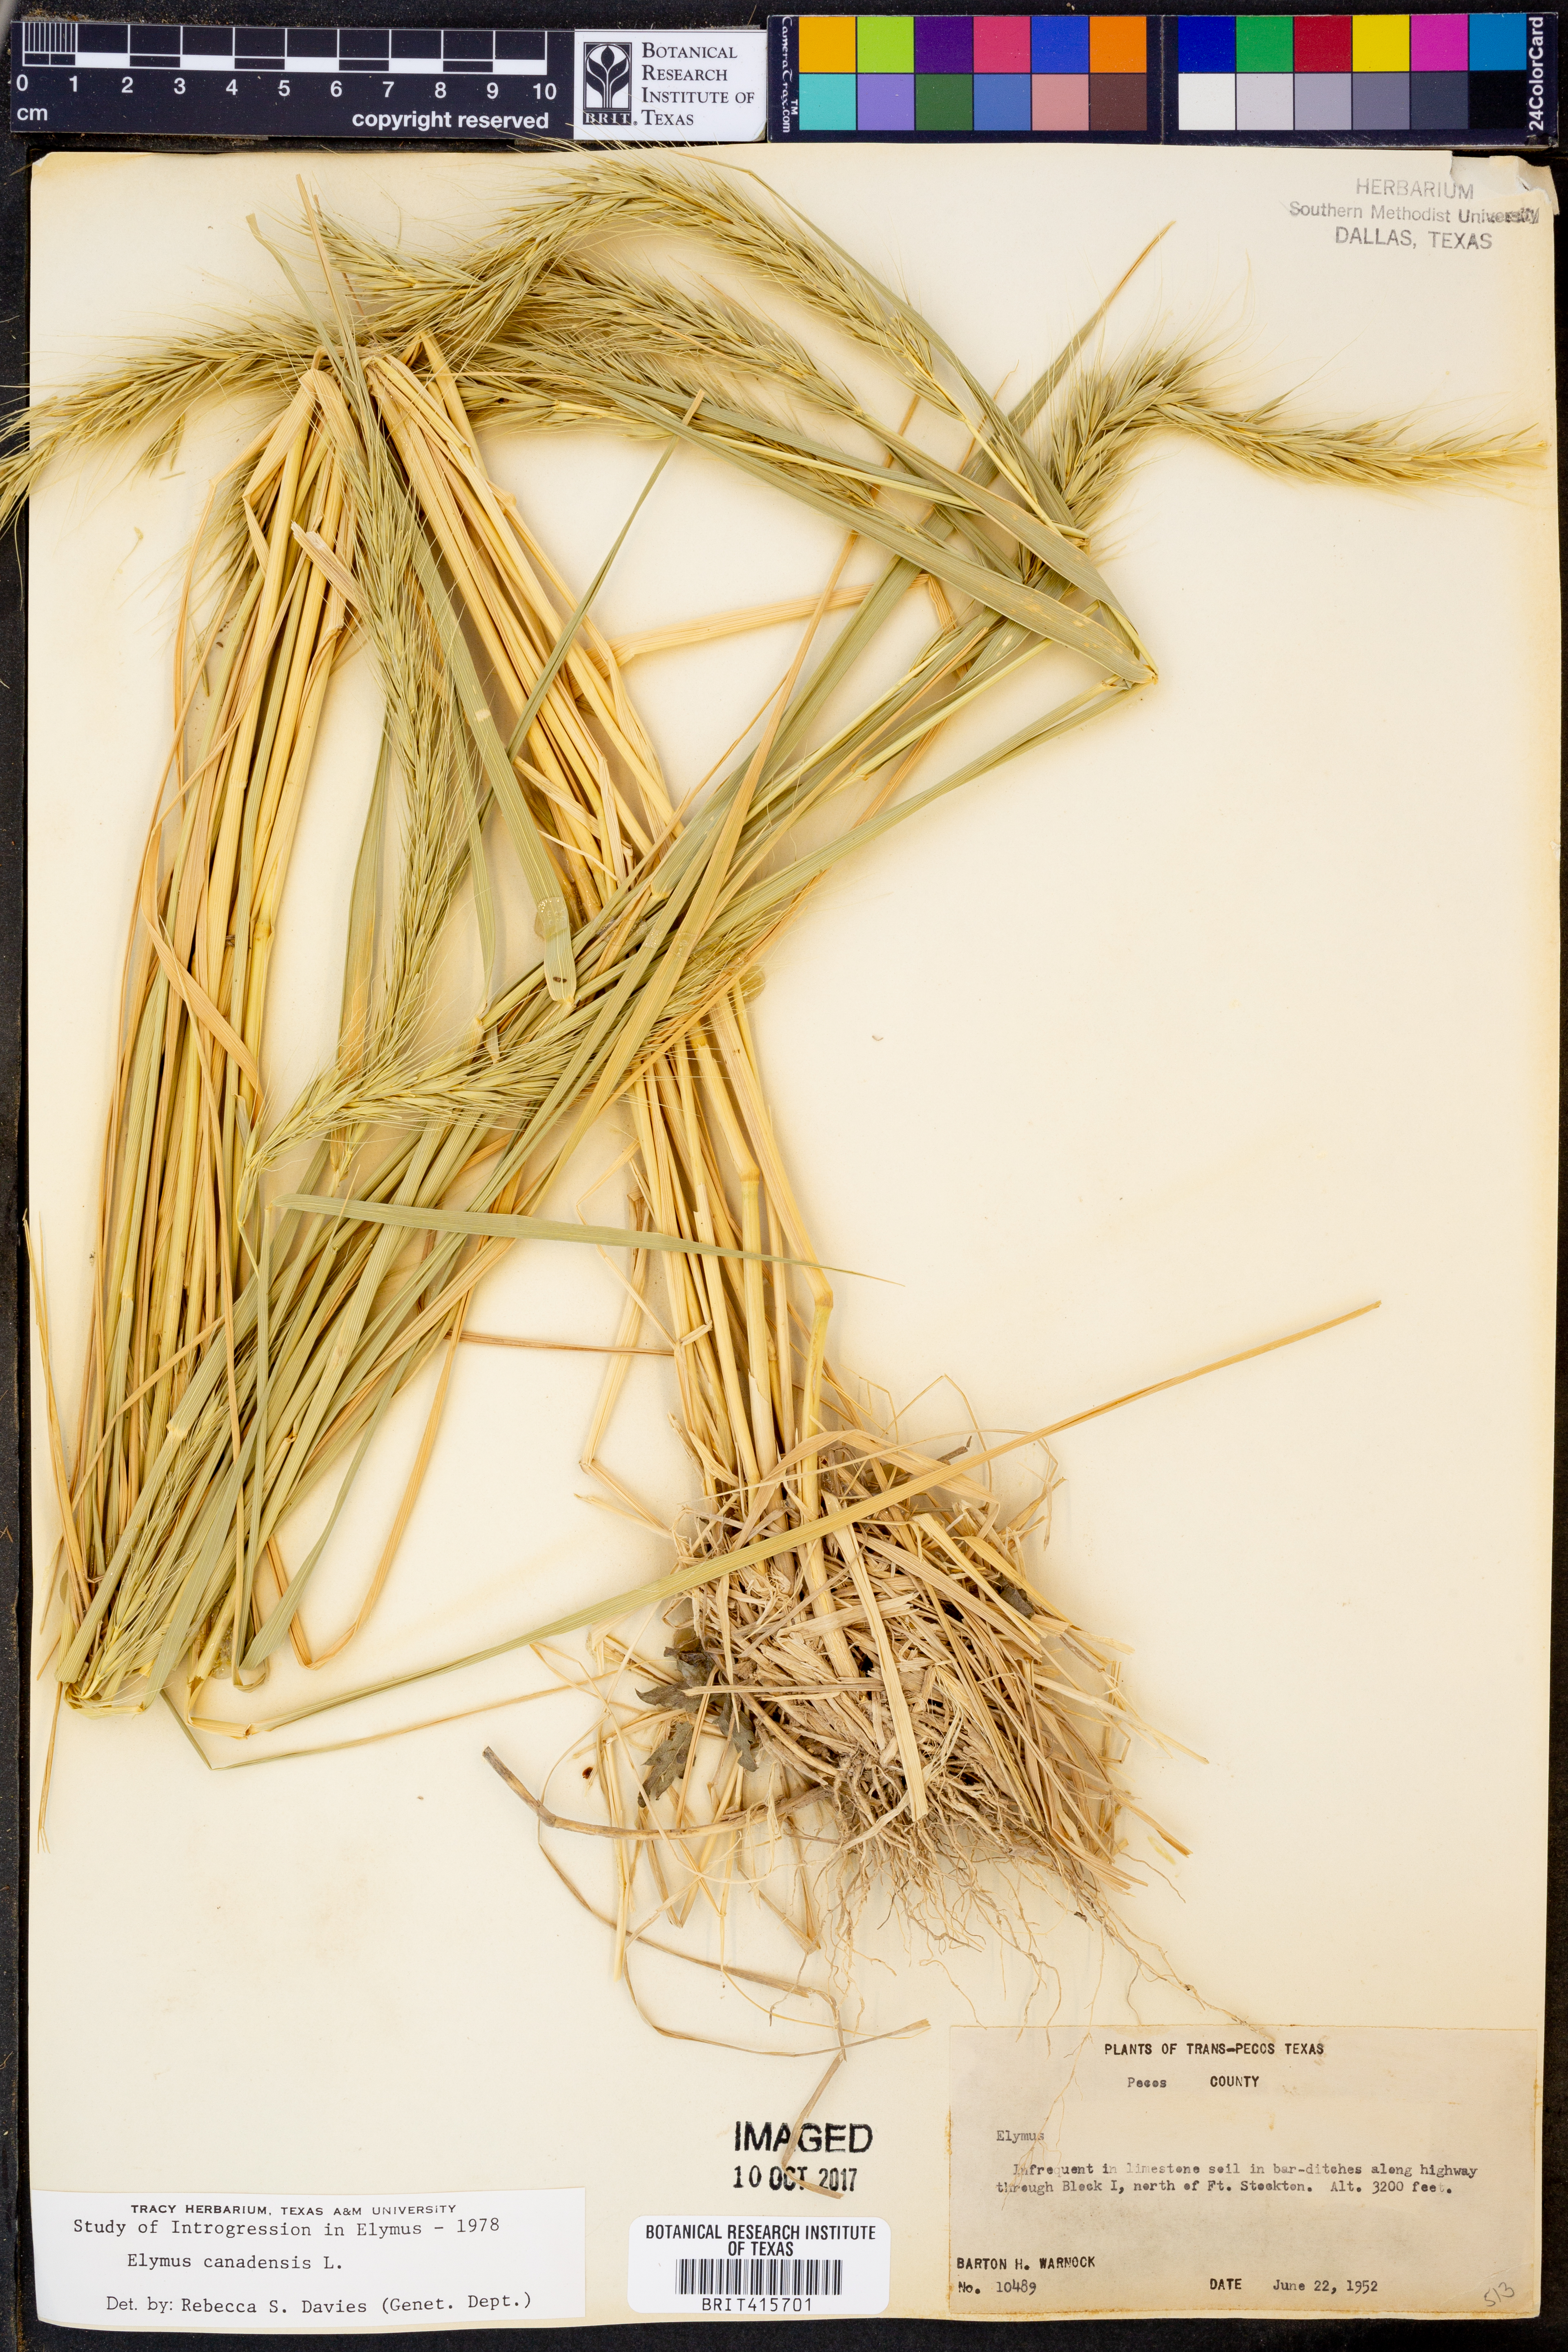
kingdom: Plantae
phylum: Tracheophyta
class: Liliopsida
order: Poales
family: Poaceae
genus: Elymus
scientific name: Elymus
